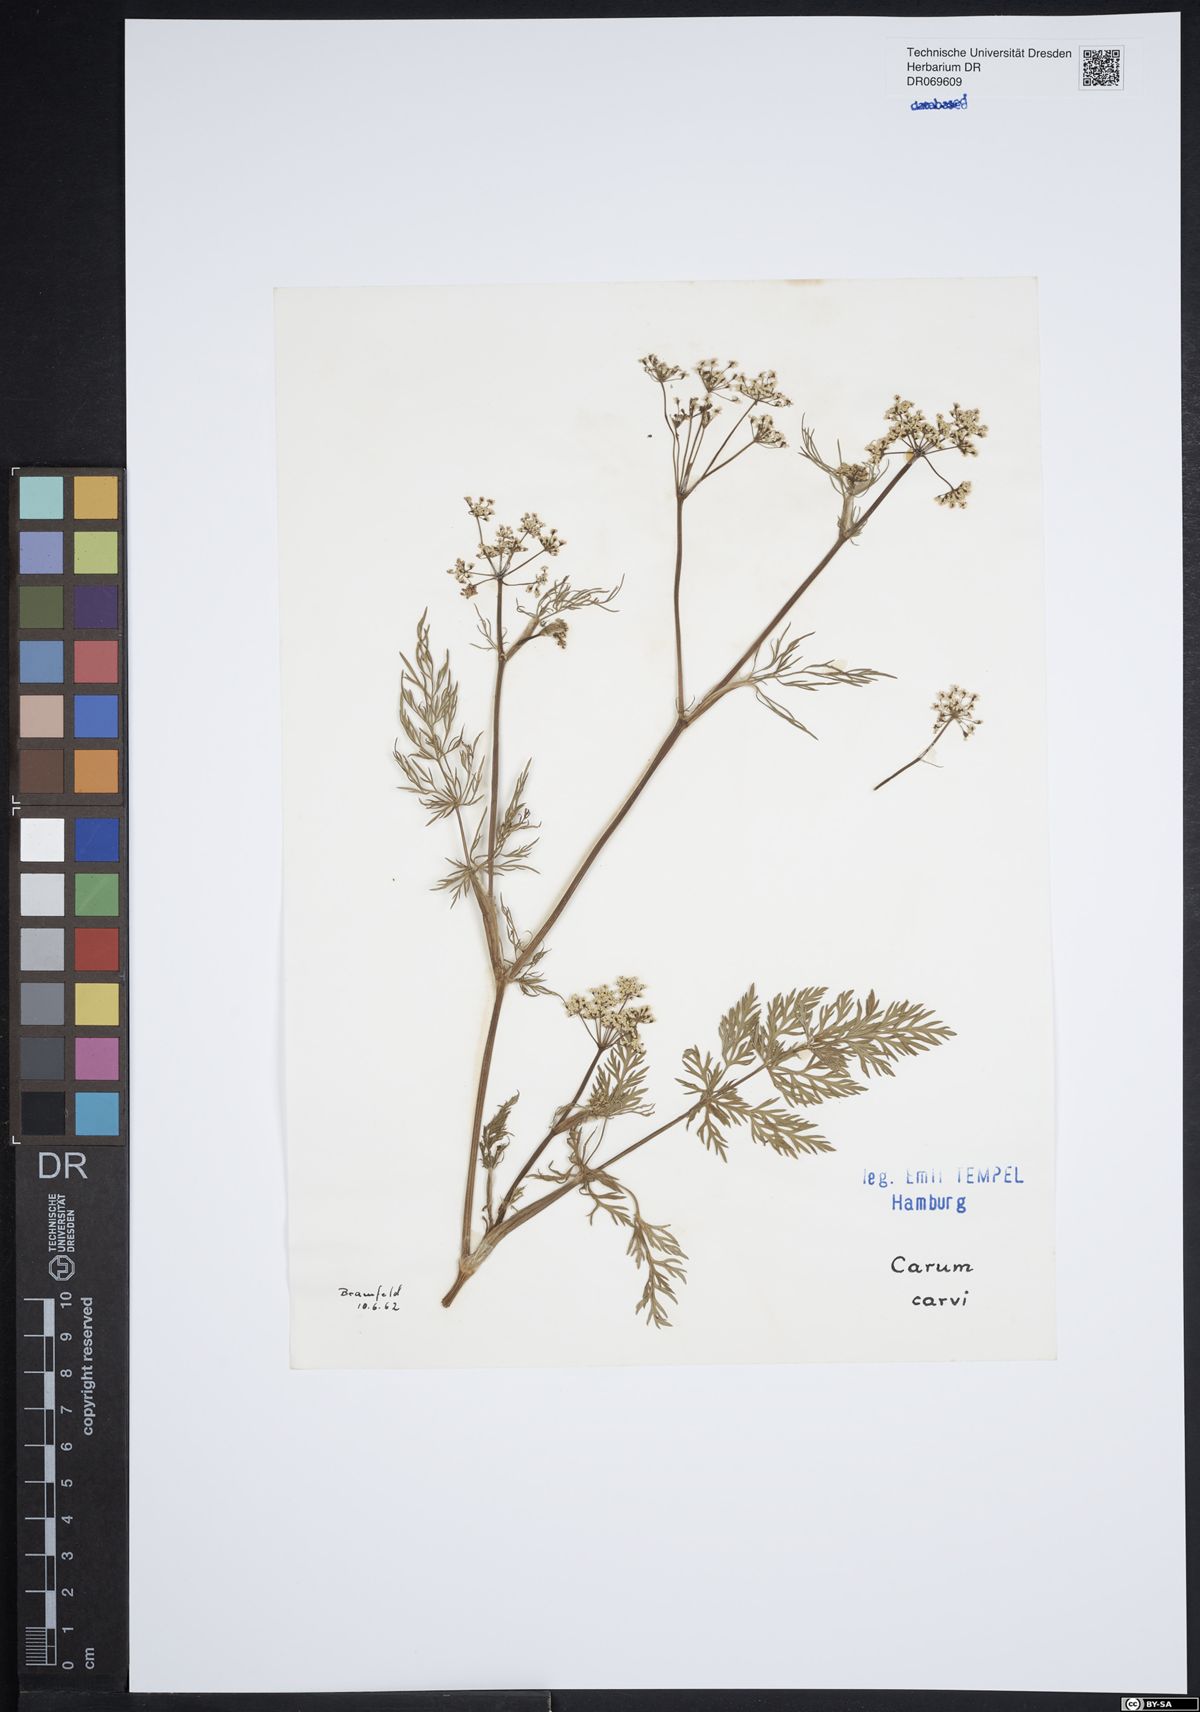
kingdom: Plantae
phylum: Tracheophyta
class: Magnoliopsida
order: Apiales
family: Apiaceae
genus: Carum
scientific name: Carum carvi
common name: Caraway
